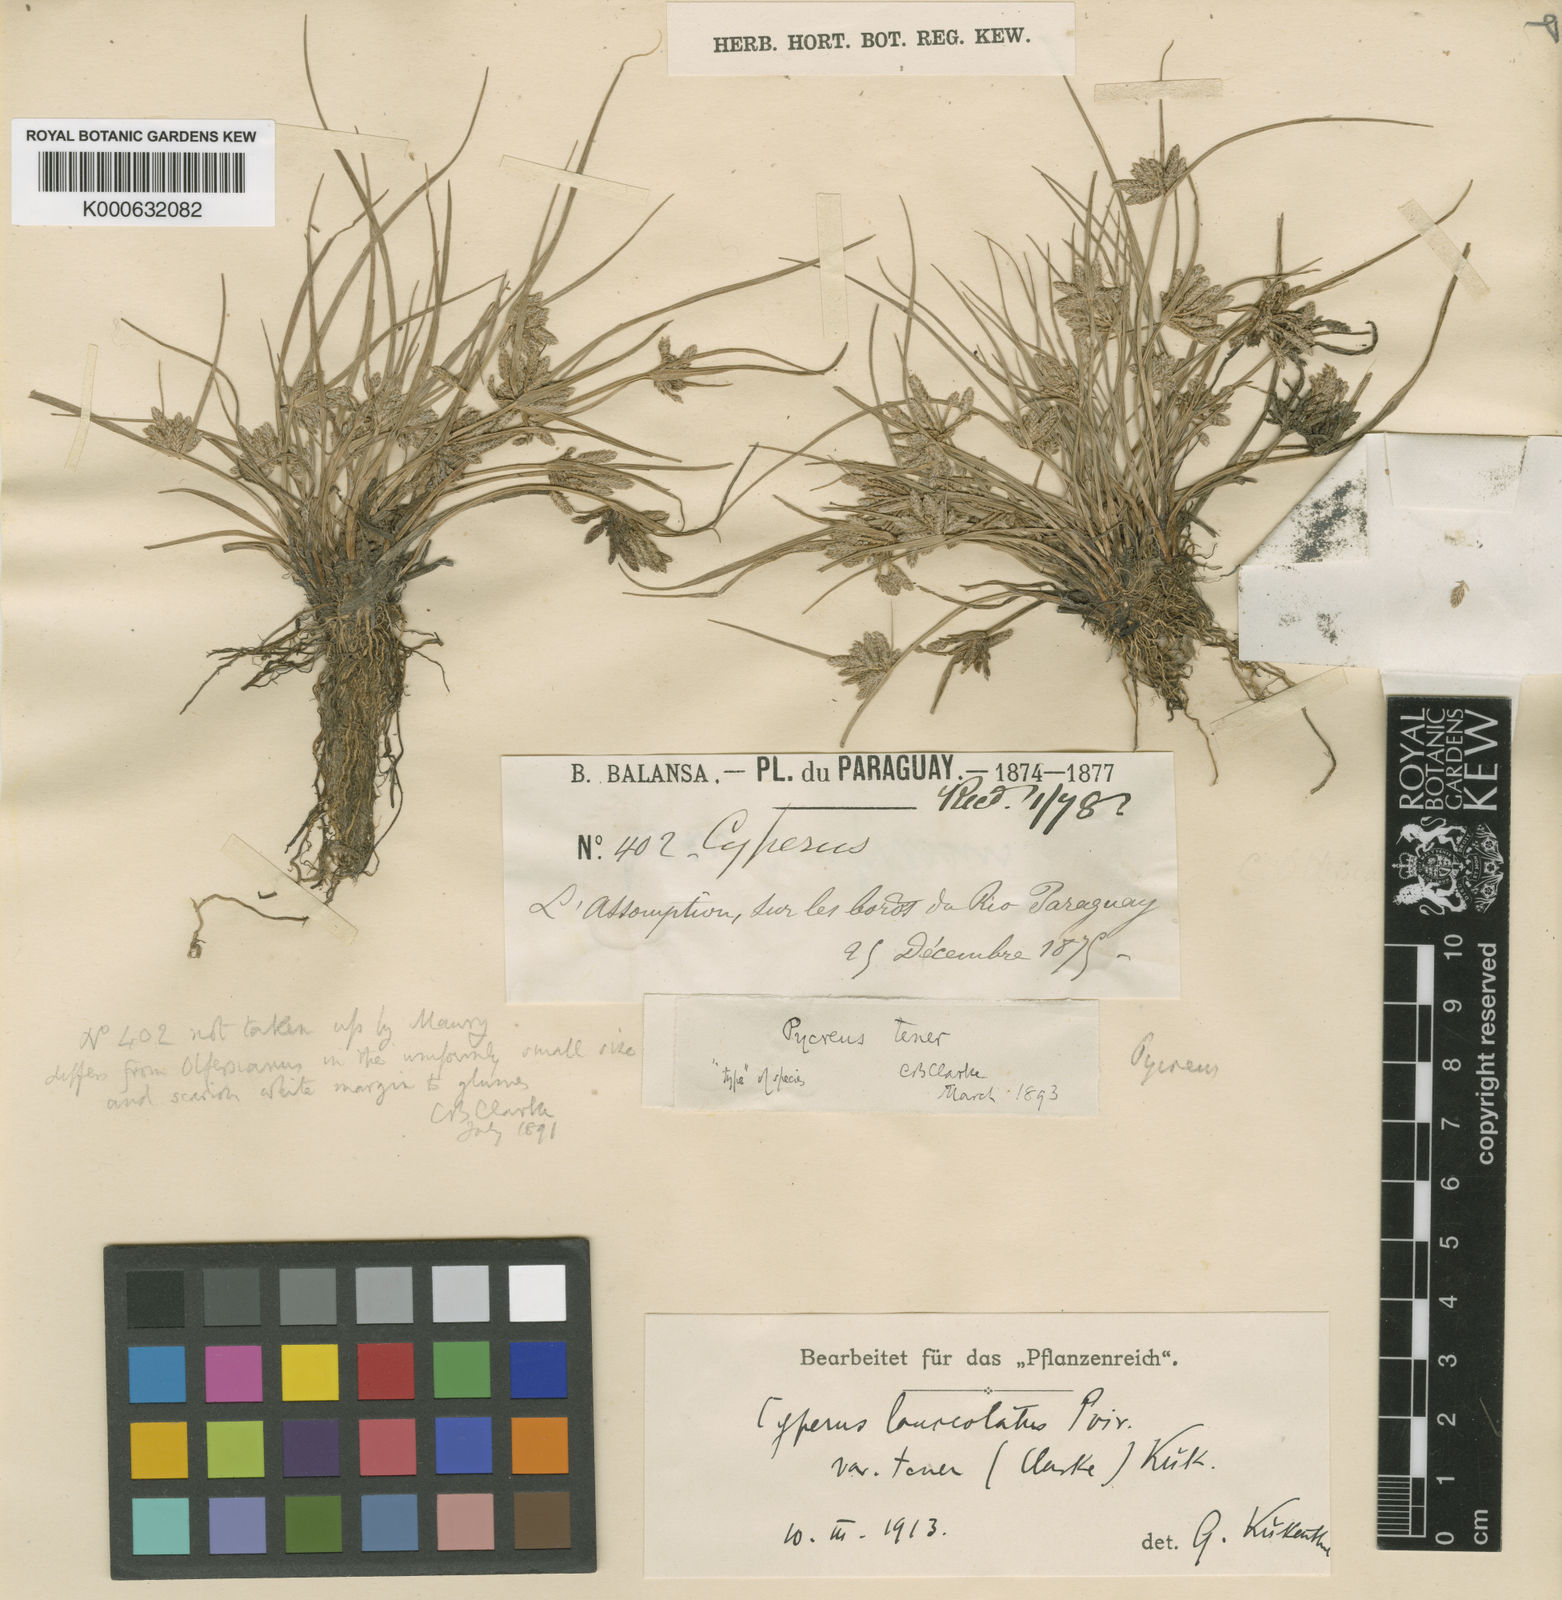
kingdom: Plantae
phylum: Tracheophyta
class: Liliopsida
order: Poales
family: Cyperaceae
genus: Cyperus
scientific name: Cyperus lanceolatus
